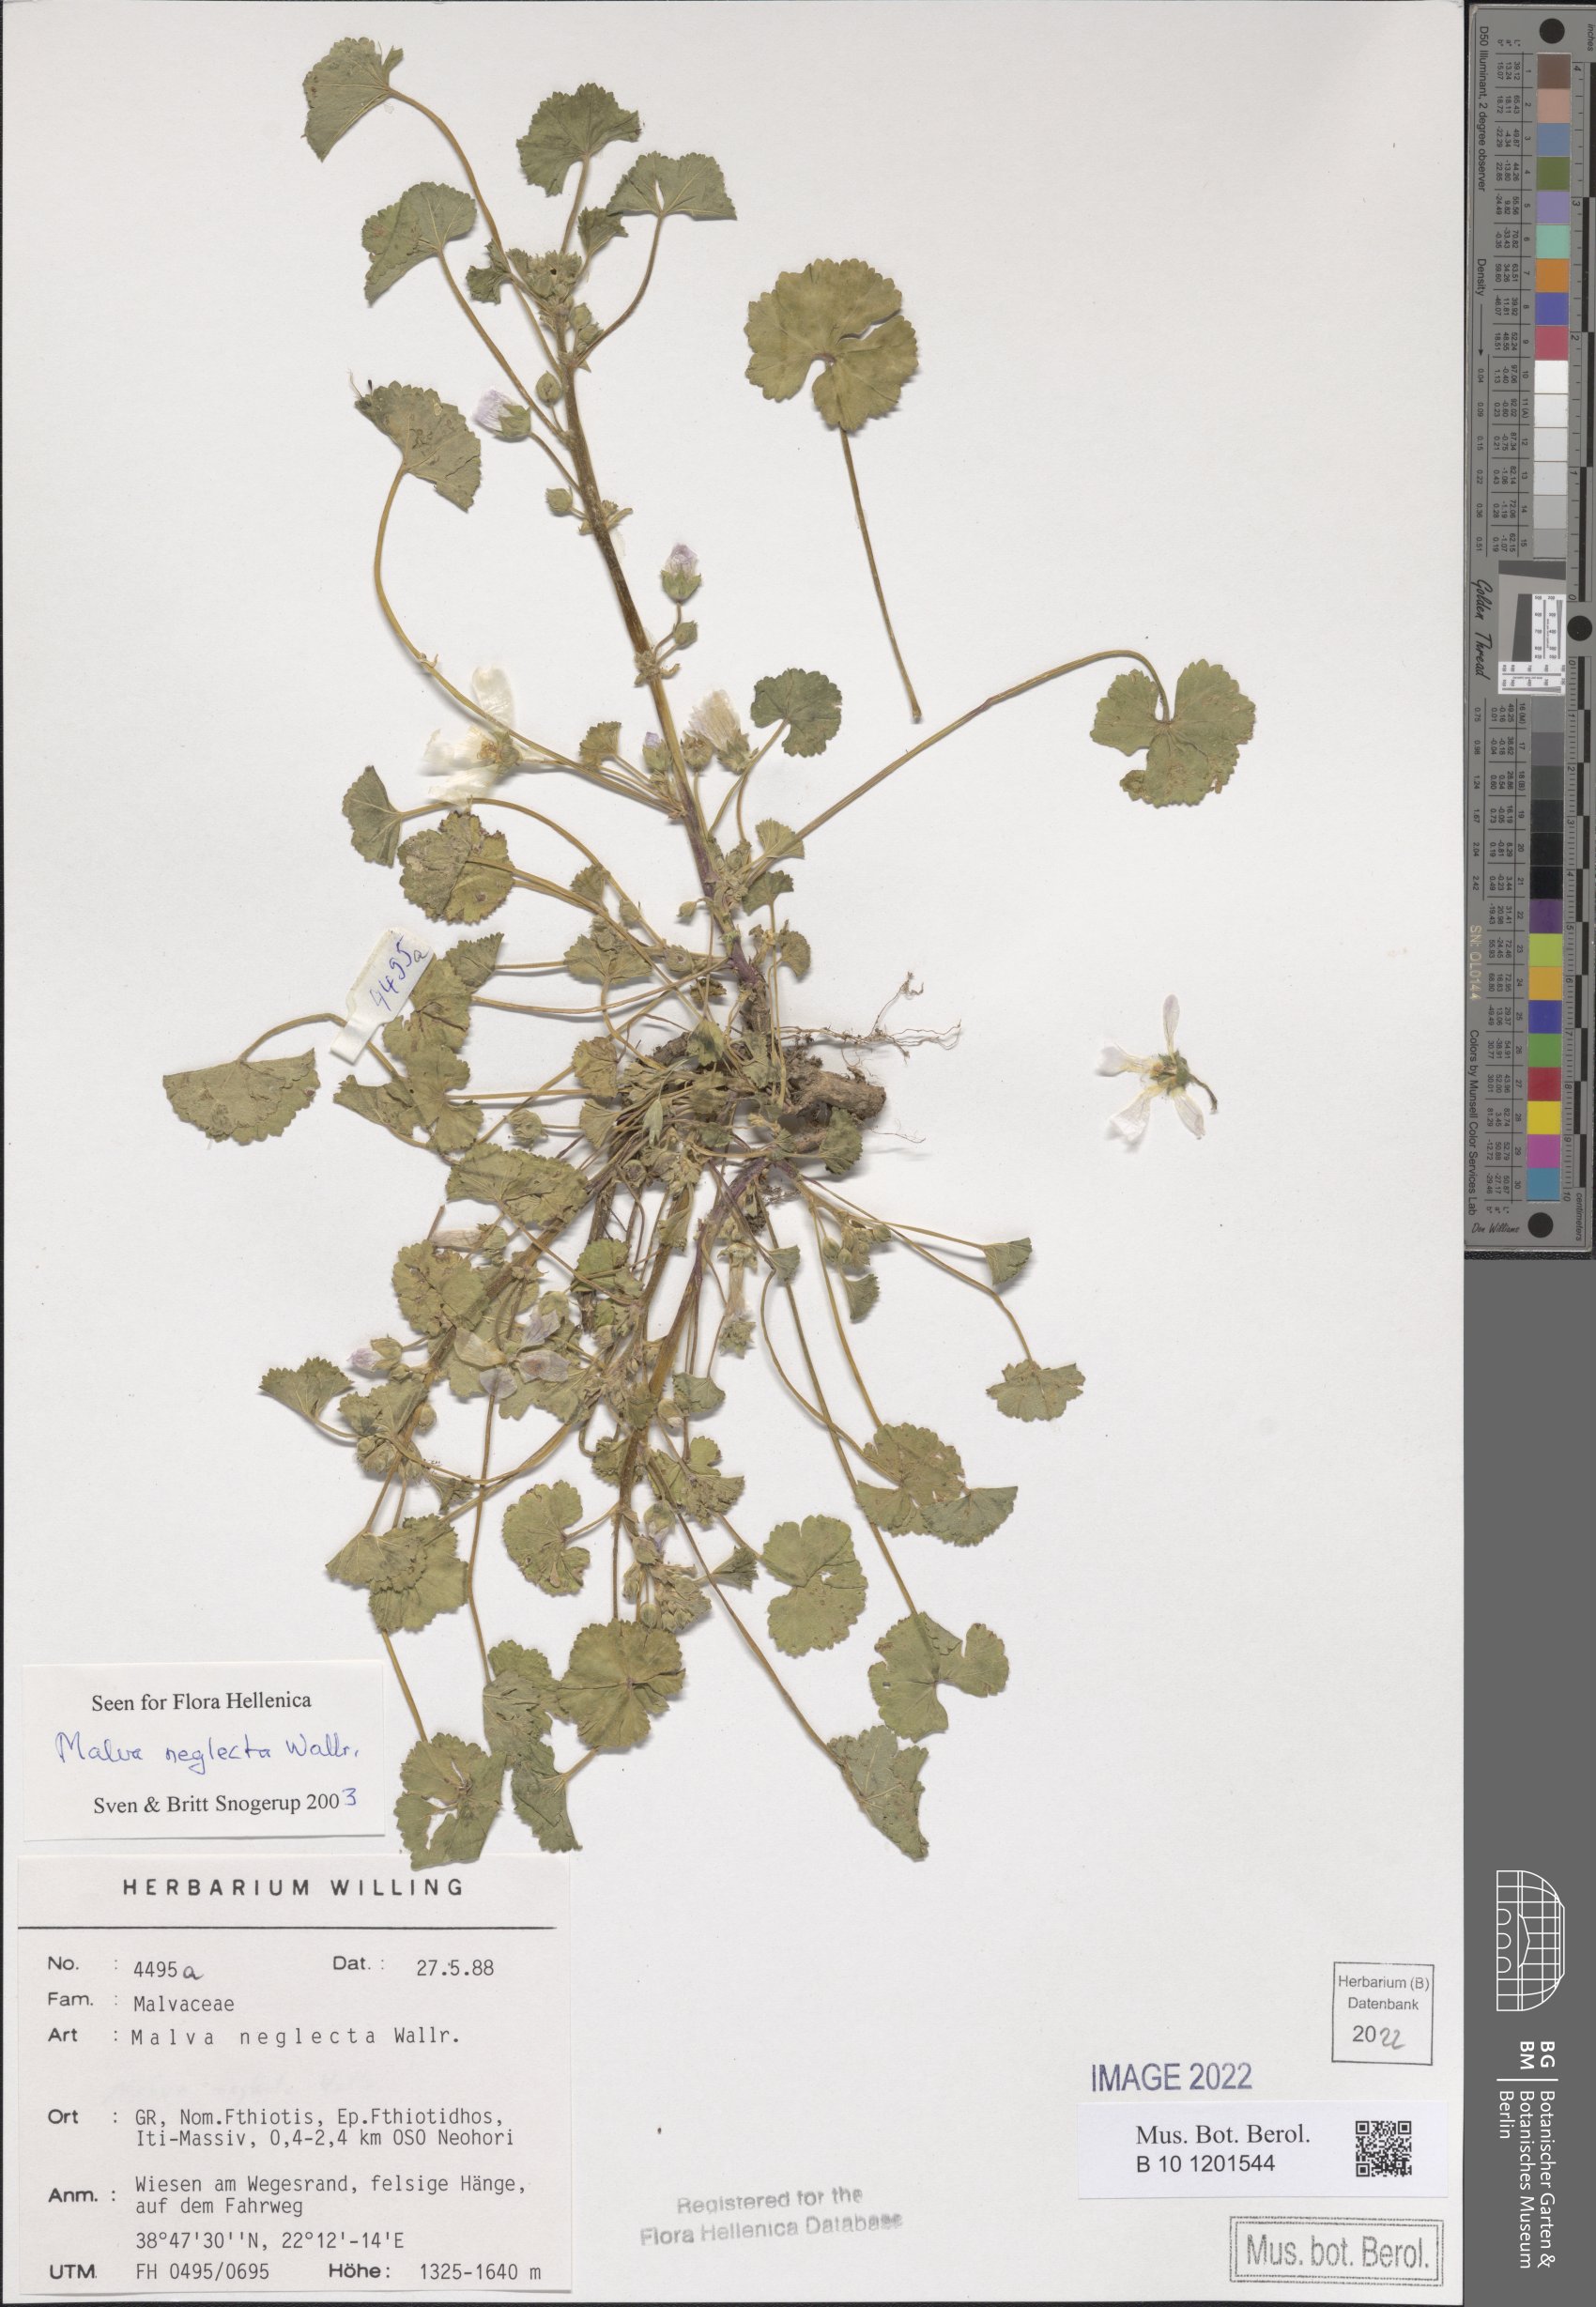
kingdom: Plantae
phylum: Tracheophyta
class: Magnoliopsida
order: Malvales
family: Malvaceae
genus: Malva
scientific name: Malva neglecta
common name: Common mallow
